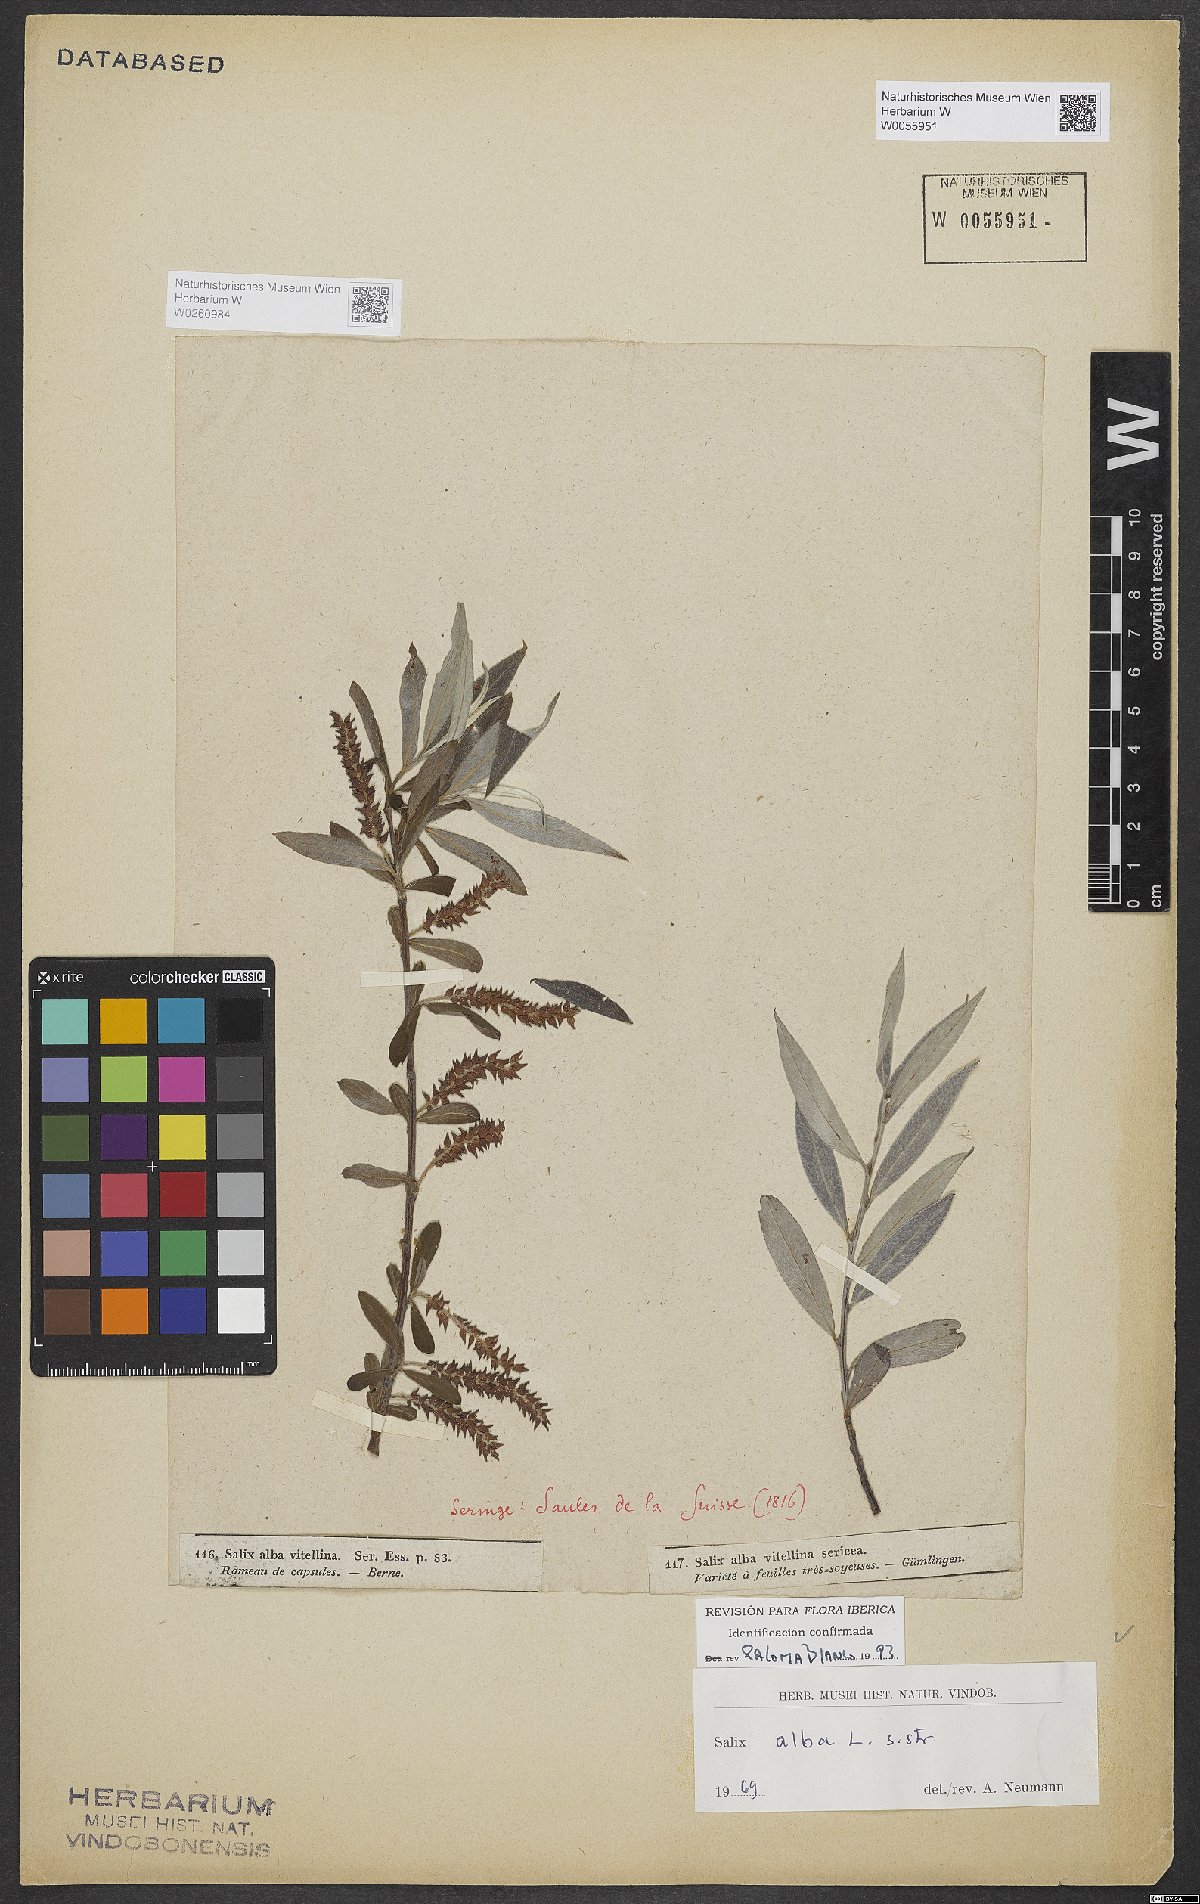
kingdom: Plantae
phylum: Tracheophyta
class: Magnoliopsida
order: Malpighiales
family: Salicaceae
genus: Salix
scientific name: Salix alba
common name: White willow
